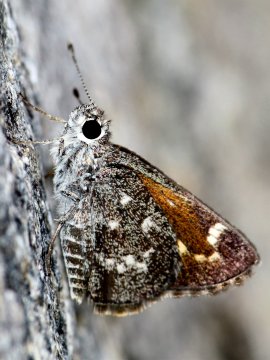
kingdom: Animalia
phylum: Arthropoda
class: Insecta
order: Lepidoptera
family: Hesperiidae
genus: Mastor
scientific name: Mastor cassus
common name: Cassus Roadside-Skipper
